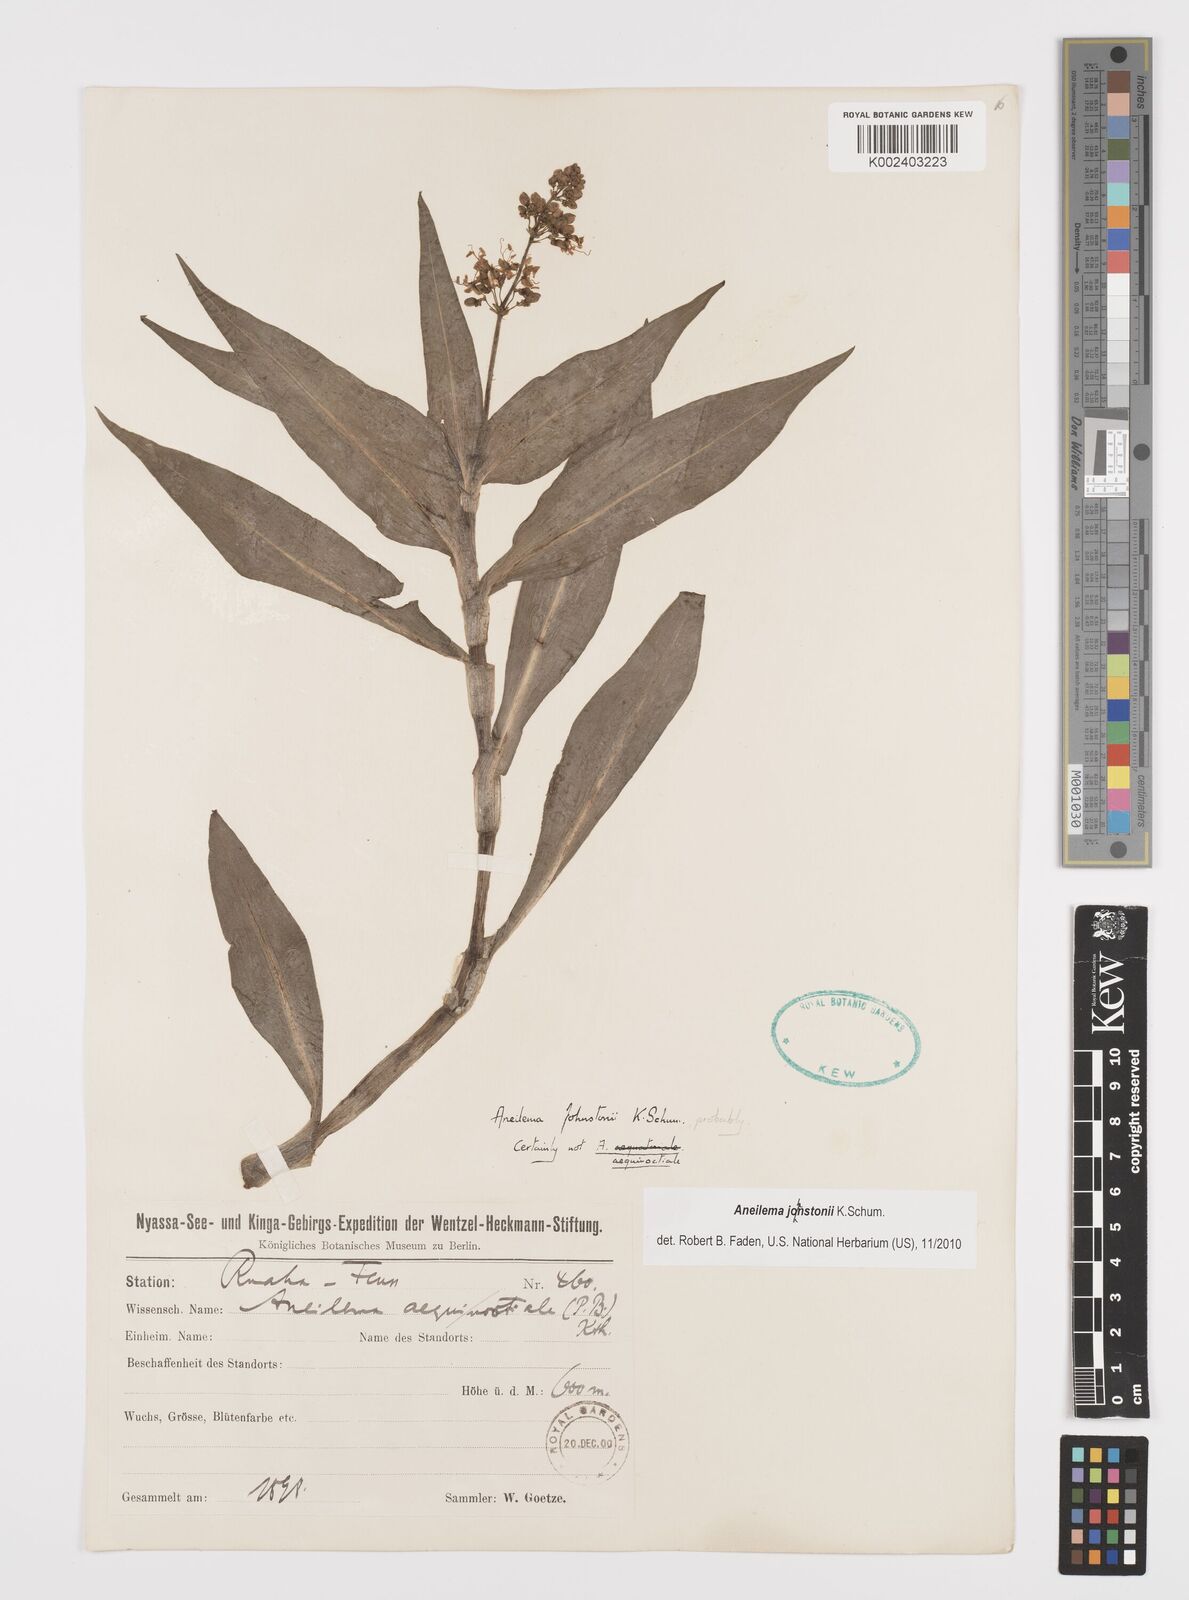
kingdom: Plantae
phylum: Tracheophyta
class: Liliopsida
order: Commelinales
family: Commelinaceae
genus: Aneilema
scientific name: Aneilema johnstonii
